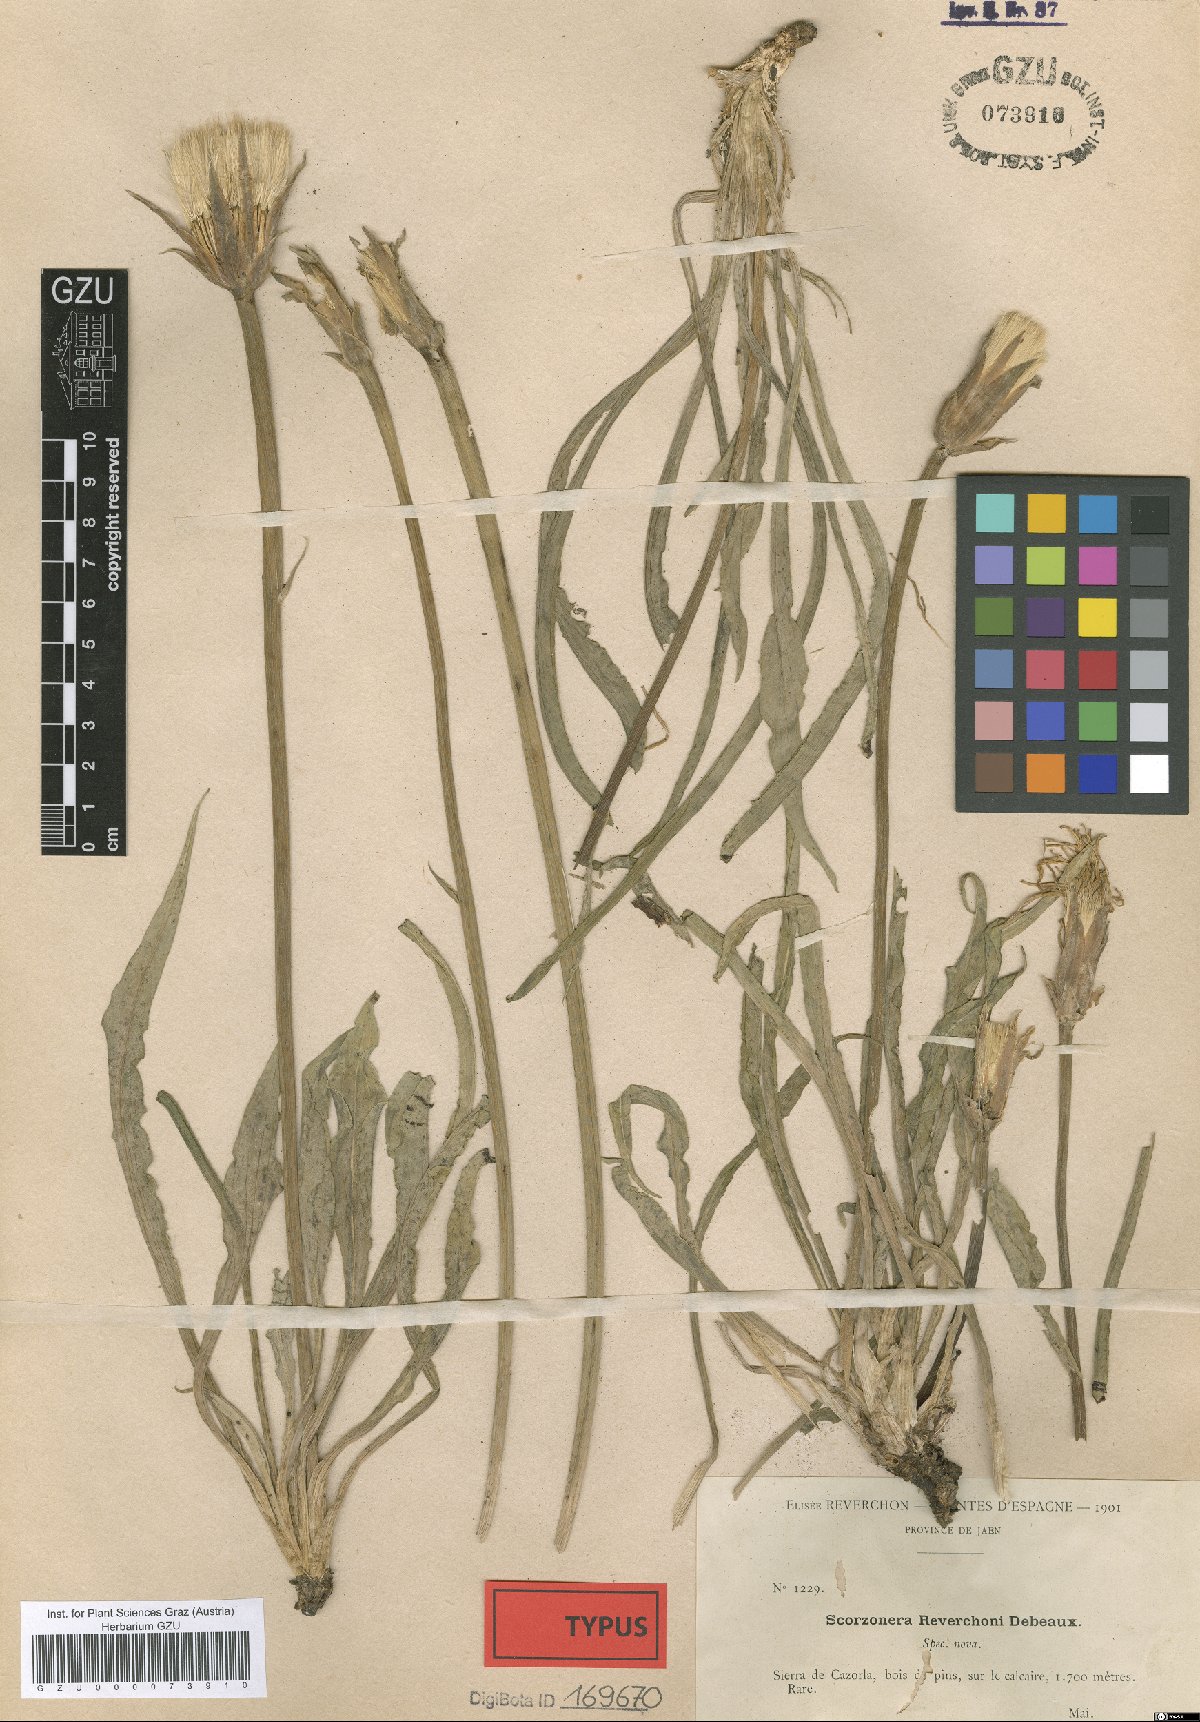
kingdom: Plantae
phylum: Tracheophyta
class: Magnoliopsida
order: Asterales
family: Asteraceae
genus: Pseudopodospermum
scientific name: Pseudopodospermum reverchonii
